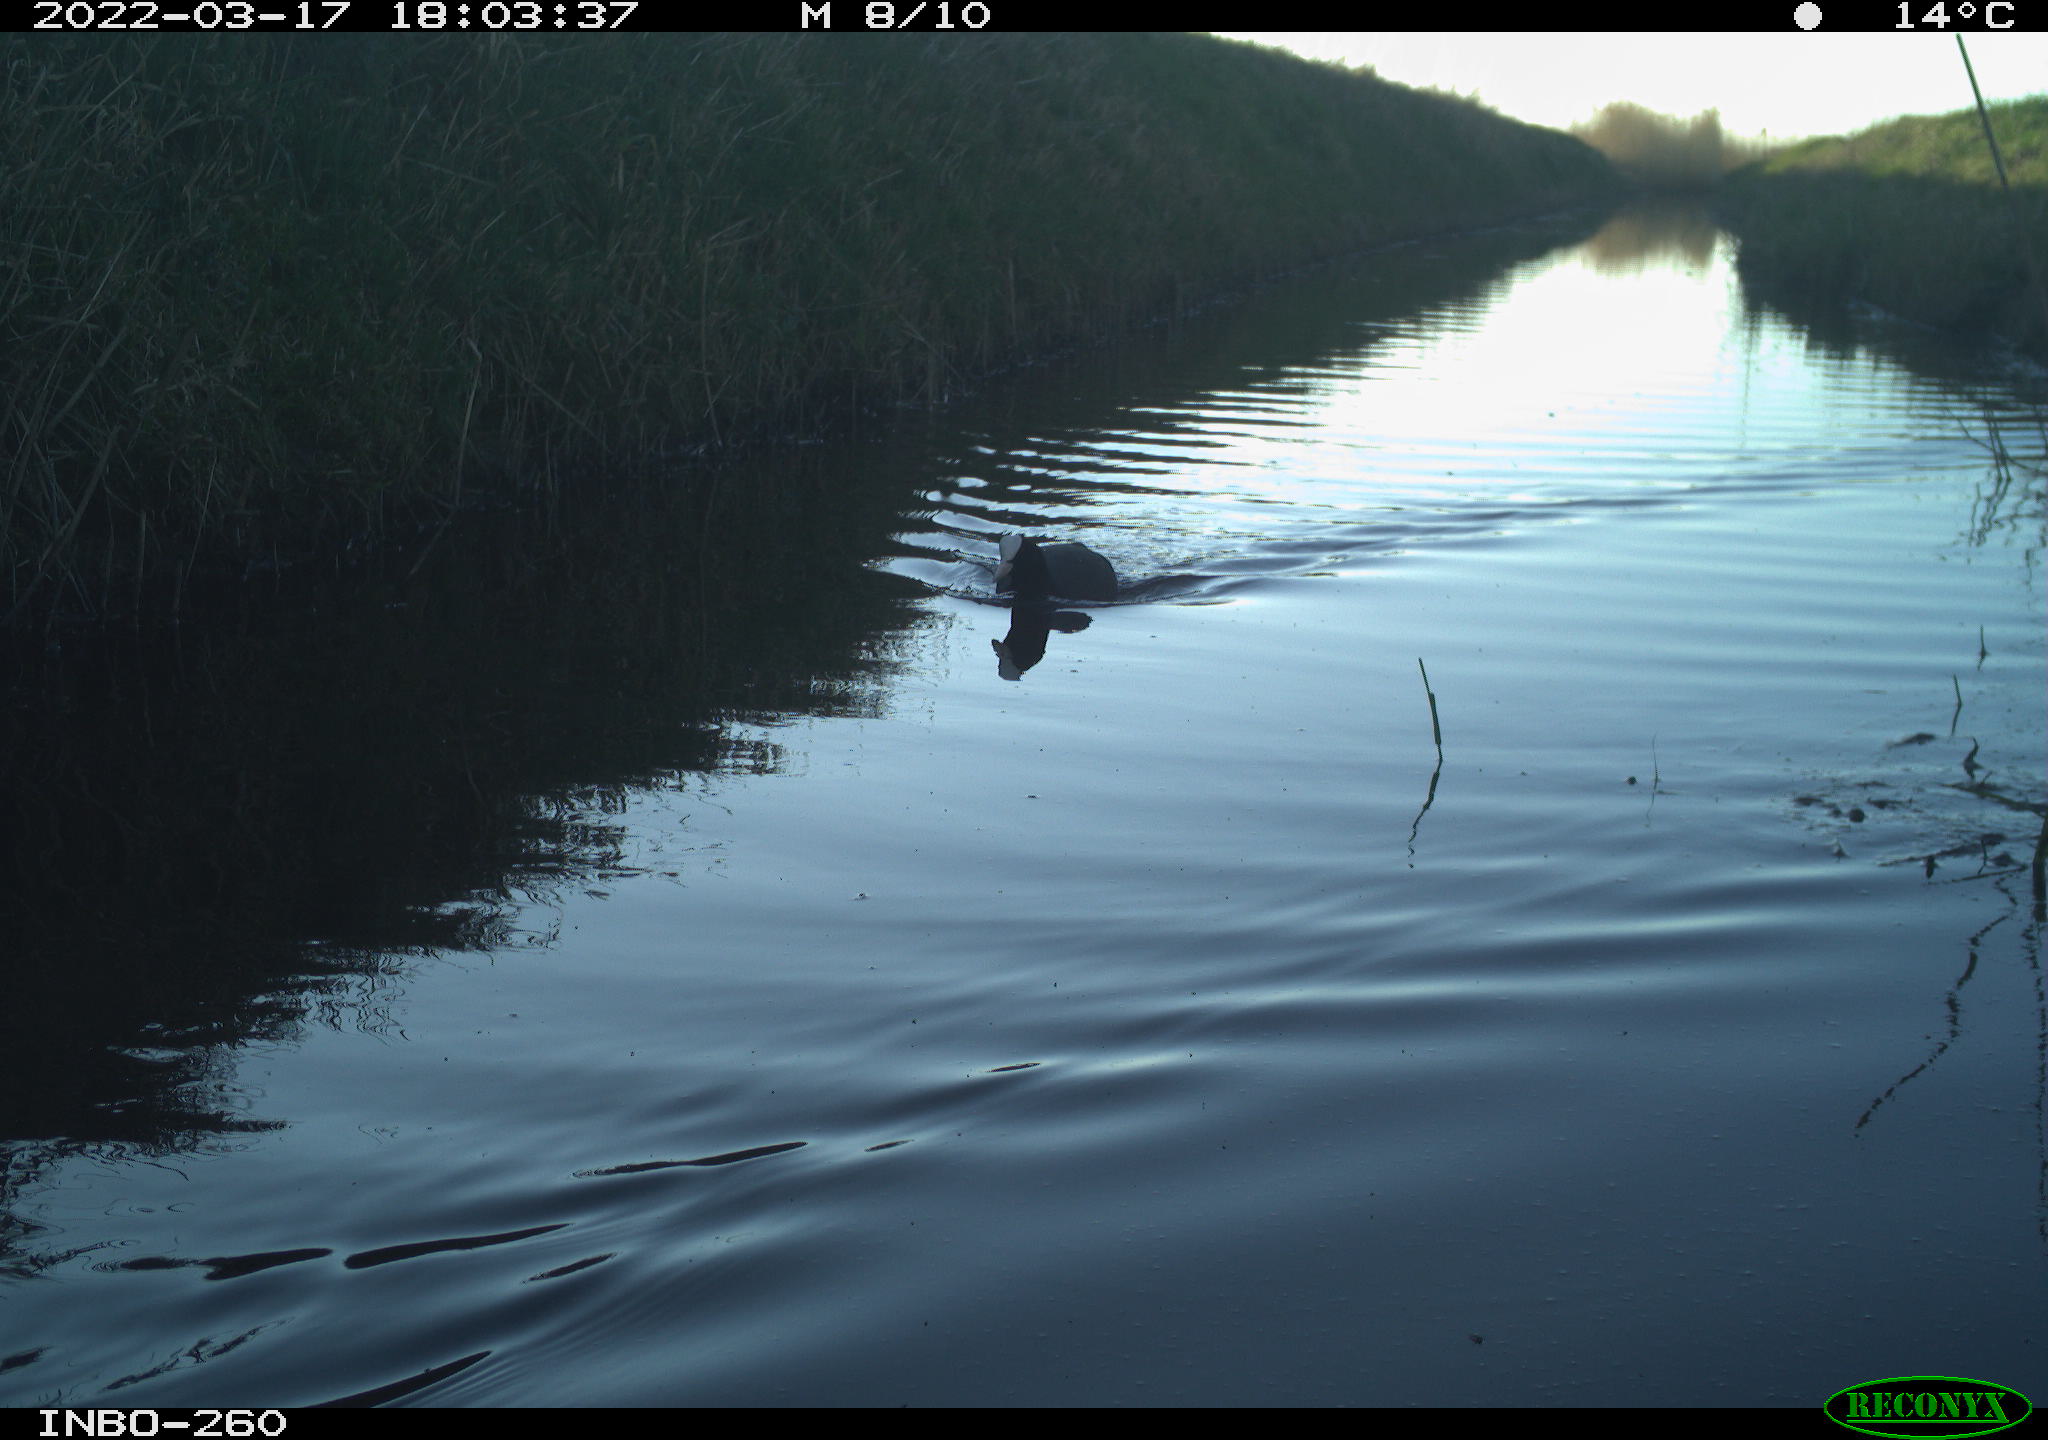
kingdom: Animalia
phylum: Chordata
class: Aves
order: Gruiformes
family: Rallidae
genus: Fulica
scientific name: Fulica atra
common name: Eurasian coot
